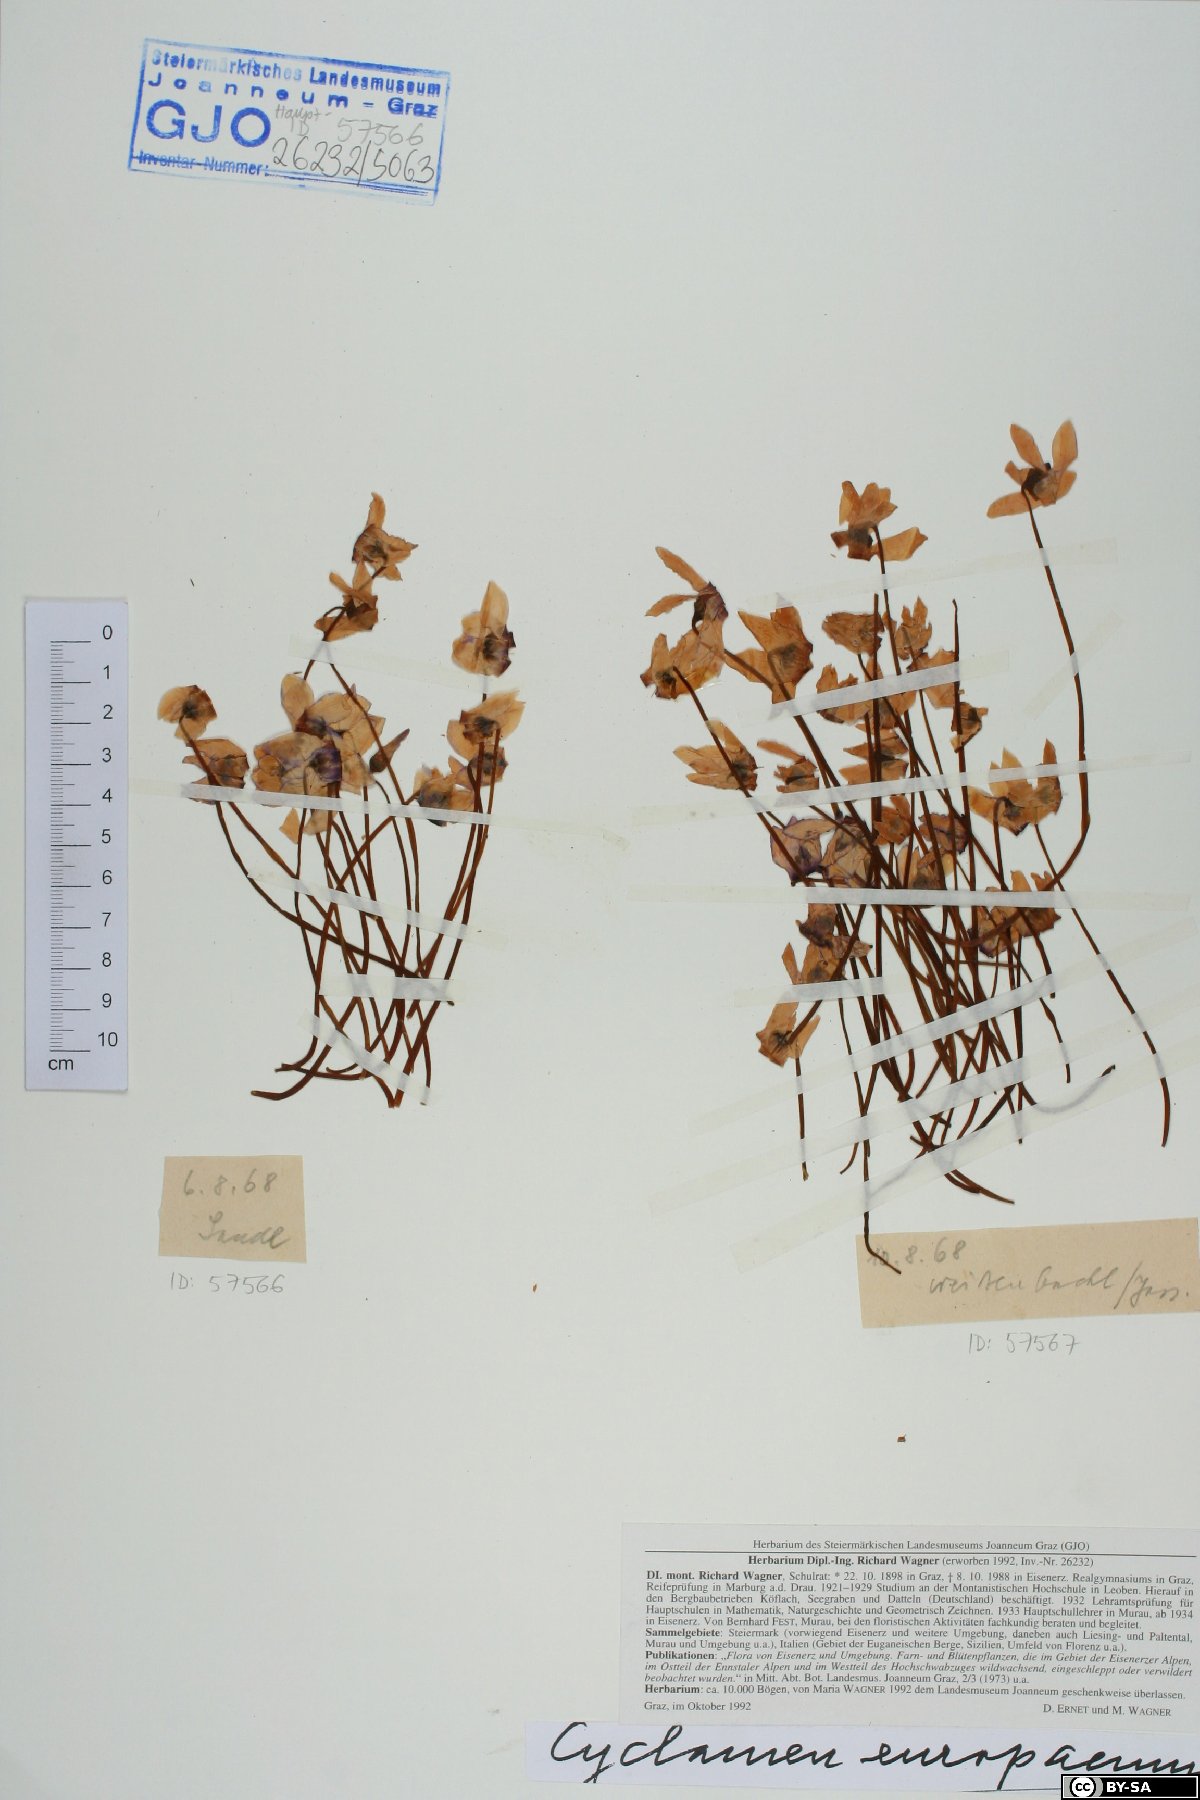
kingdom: Plantae
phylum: Tracheophyta
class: Magnoliopsida
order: Ericales
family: Primulaceae
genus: Cyclamen
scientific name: Cyclamen purpurascens
